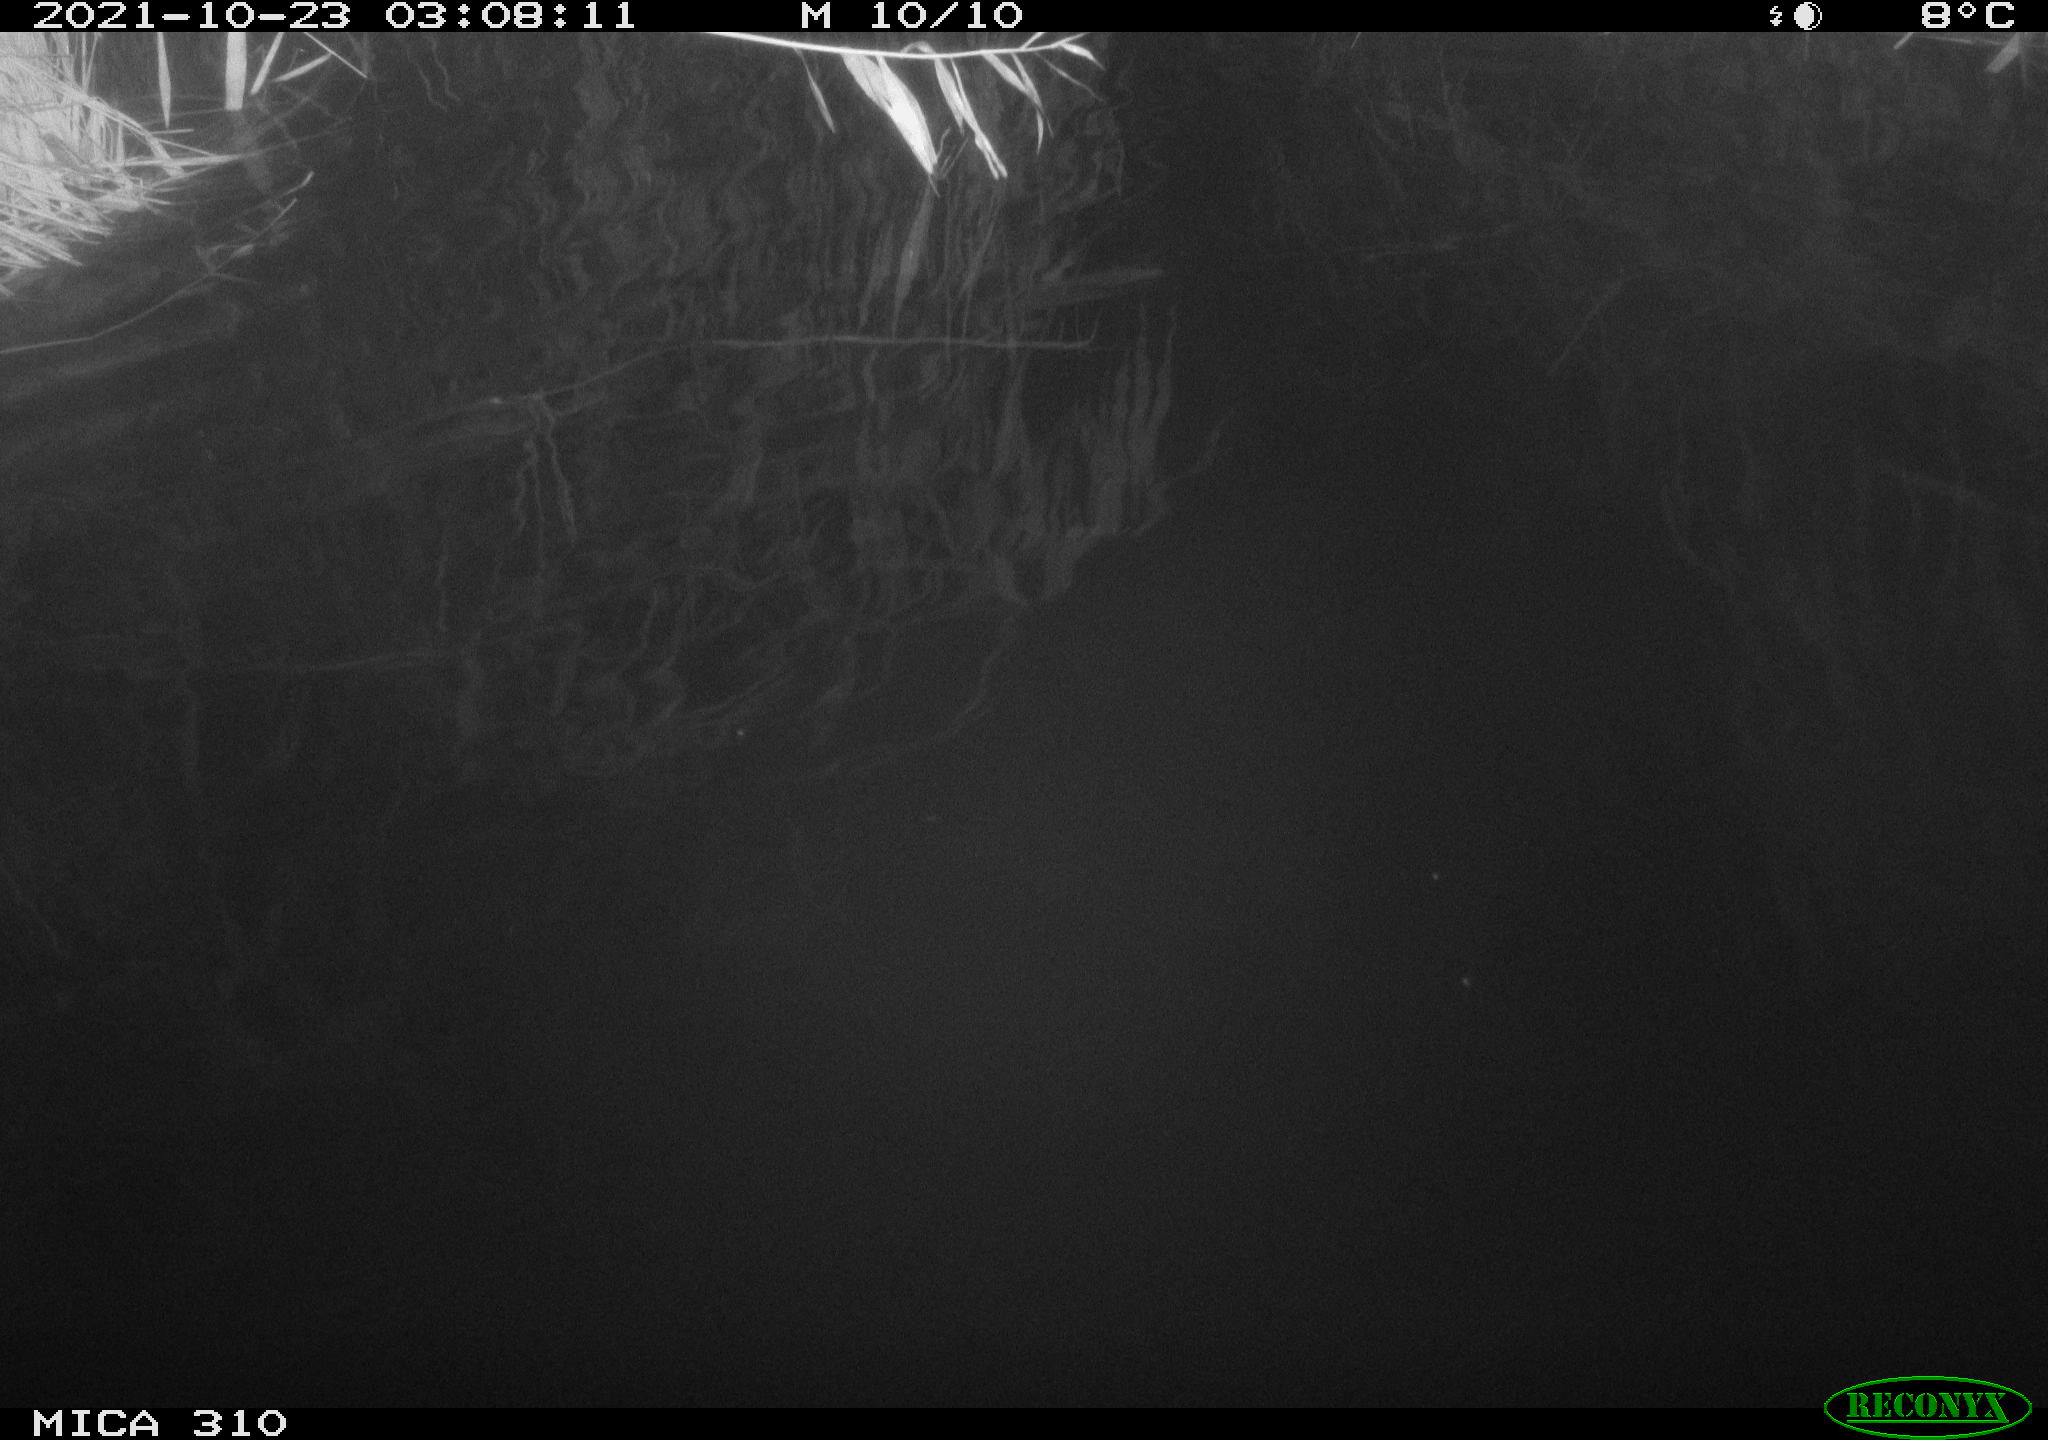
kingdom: Animalia
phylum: Chordata
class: Mammalia
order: Rodentia
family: Muridae
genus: Rattus
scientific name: Rattus norvegicus
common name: Brown rat
